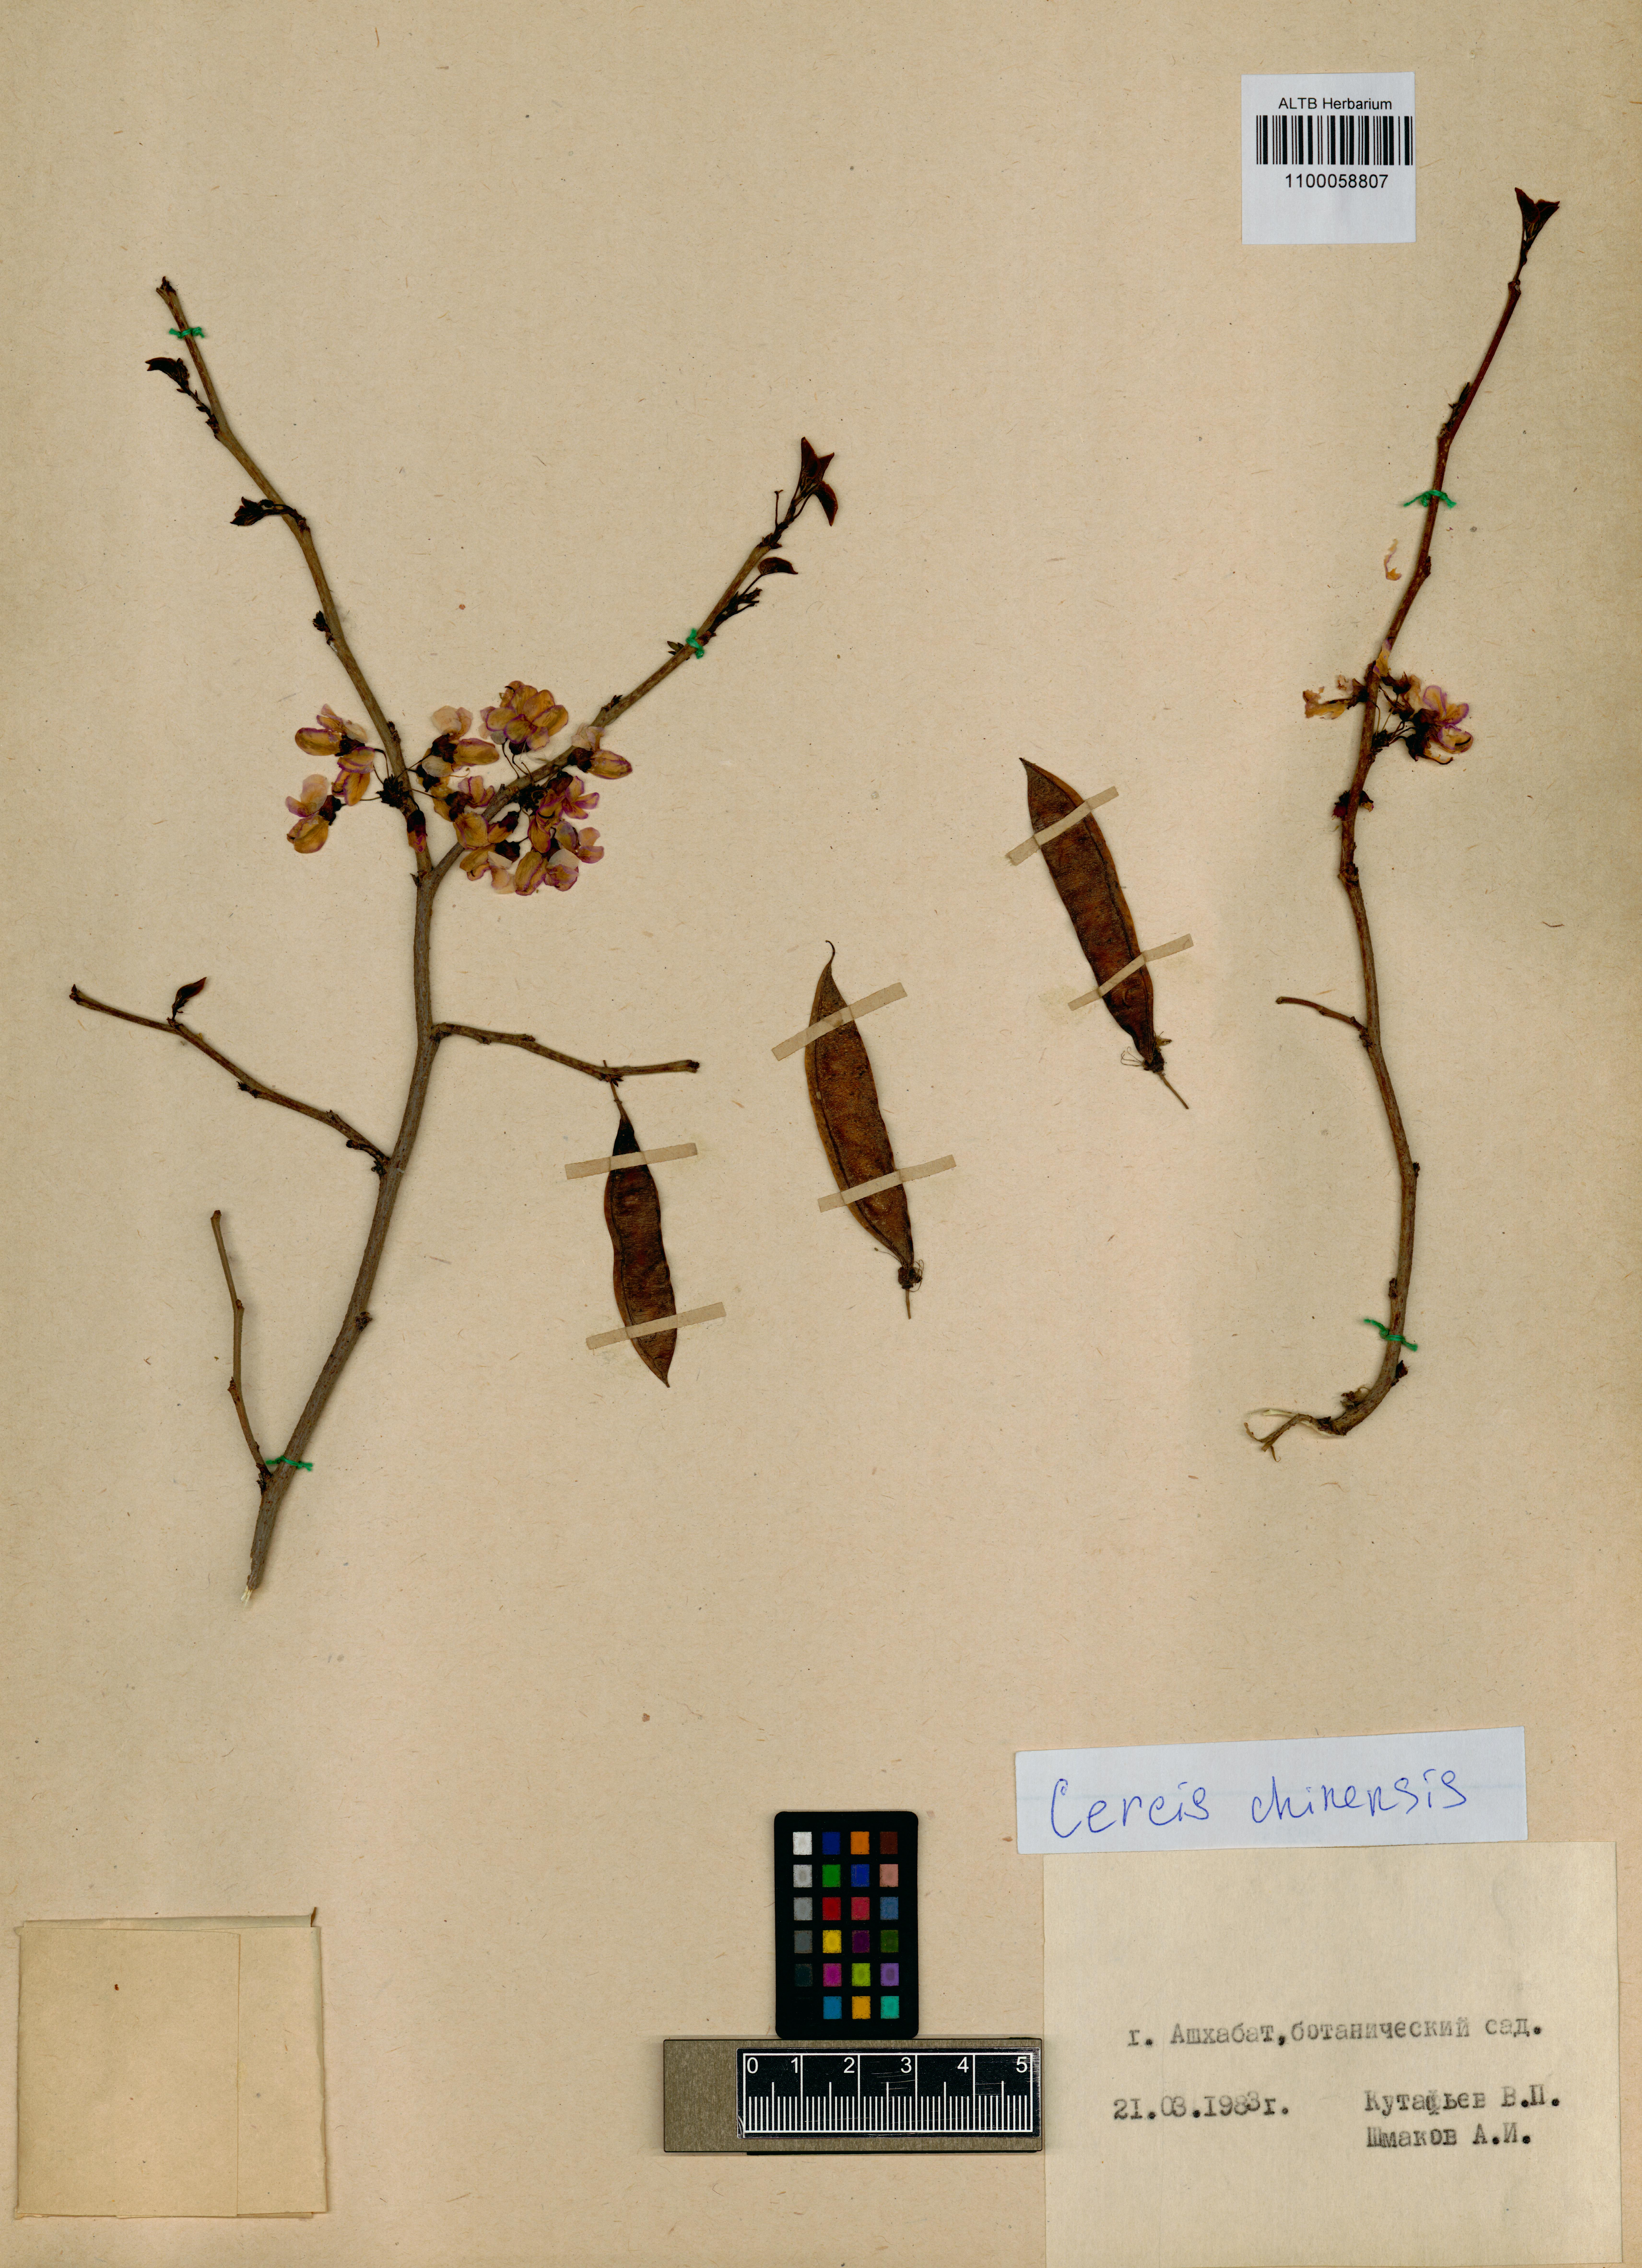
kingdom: Plantae
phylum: Tracheophyta
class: Magnoliopsida
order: Fabales
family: Fabaceae
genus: Cercis
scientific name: Cercis chinensis
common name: Chinese redbud
